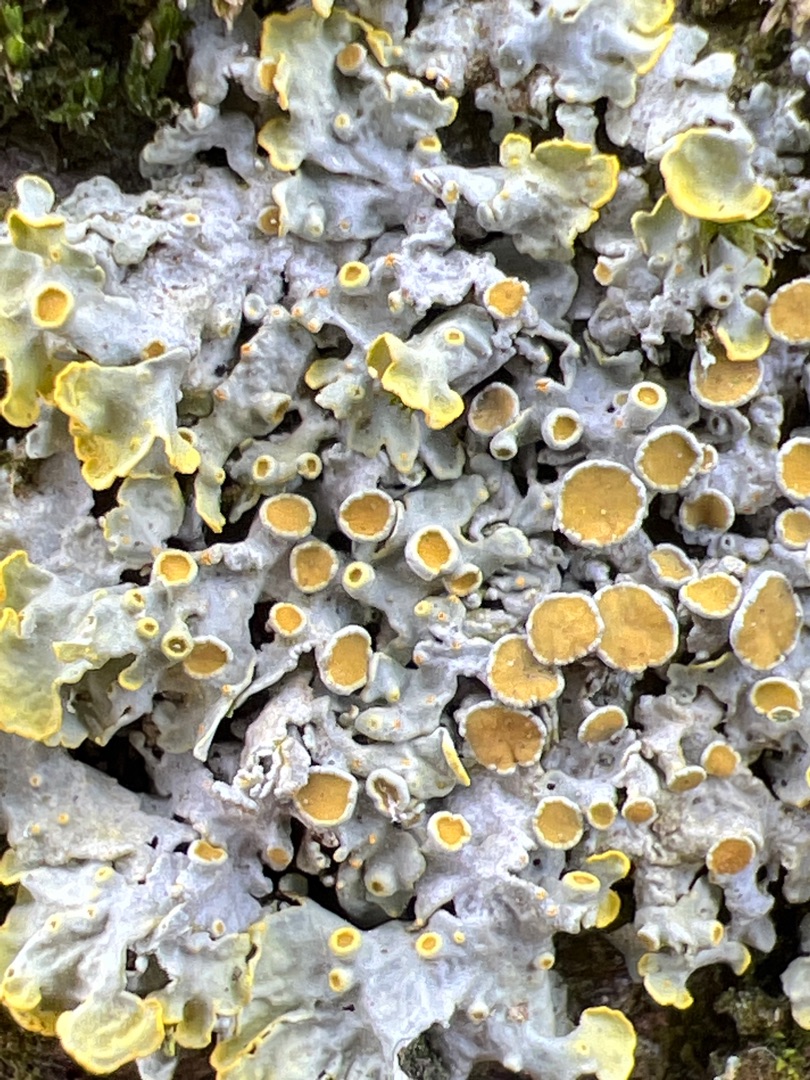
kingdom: Fungi
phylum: Ascomycota
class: Lecanoromycetes
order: Teloschistales
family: Teloschistaceae
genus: Xanthoria
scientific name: Xanthoria parietina
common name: Almindelig væggelav
